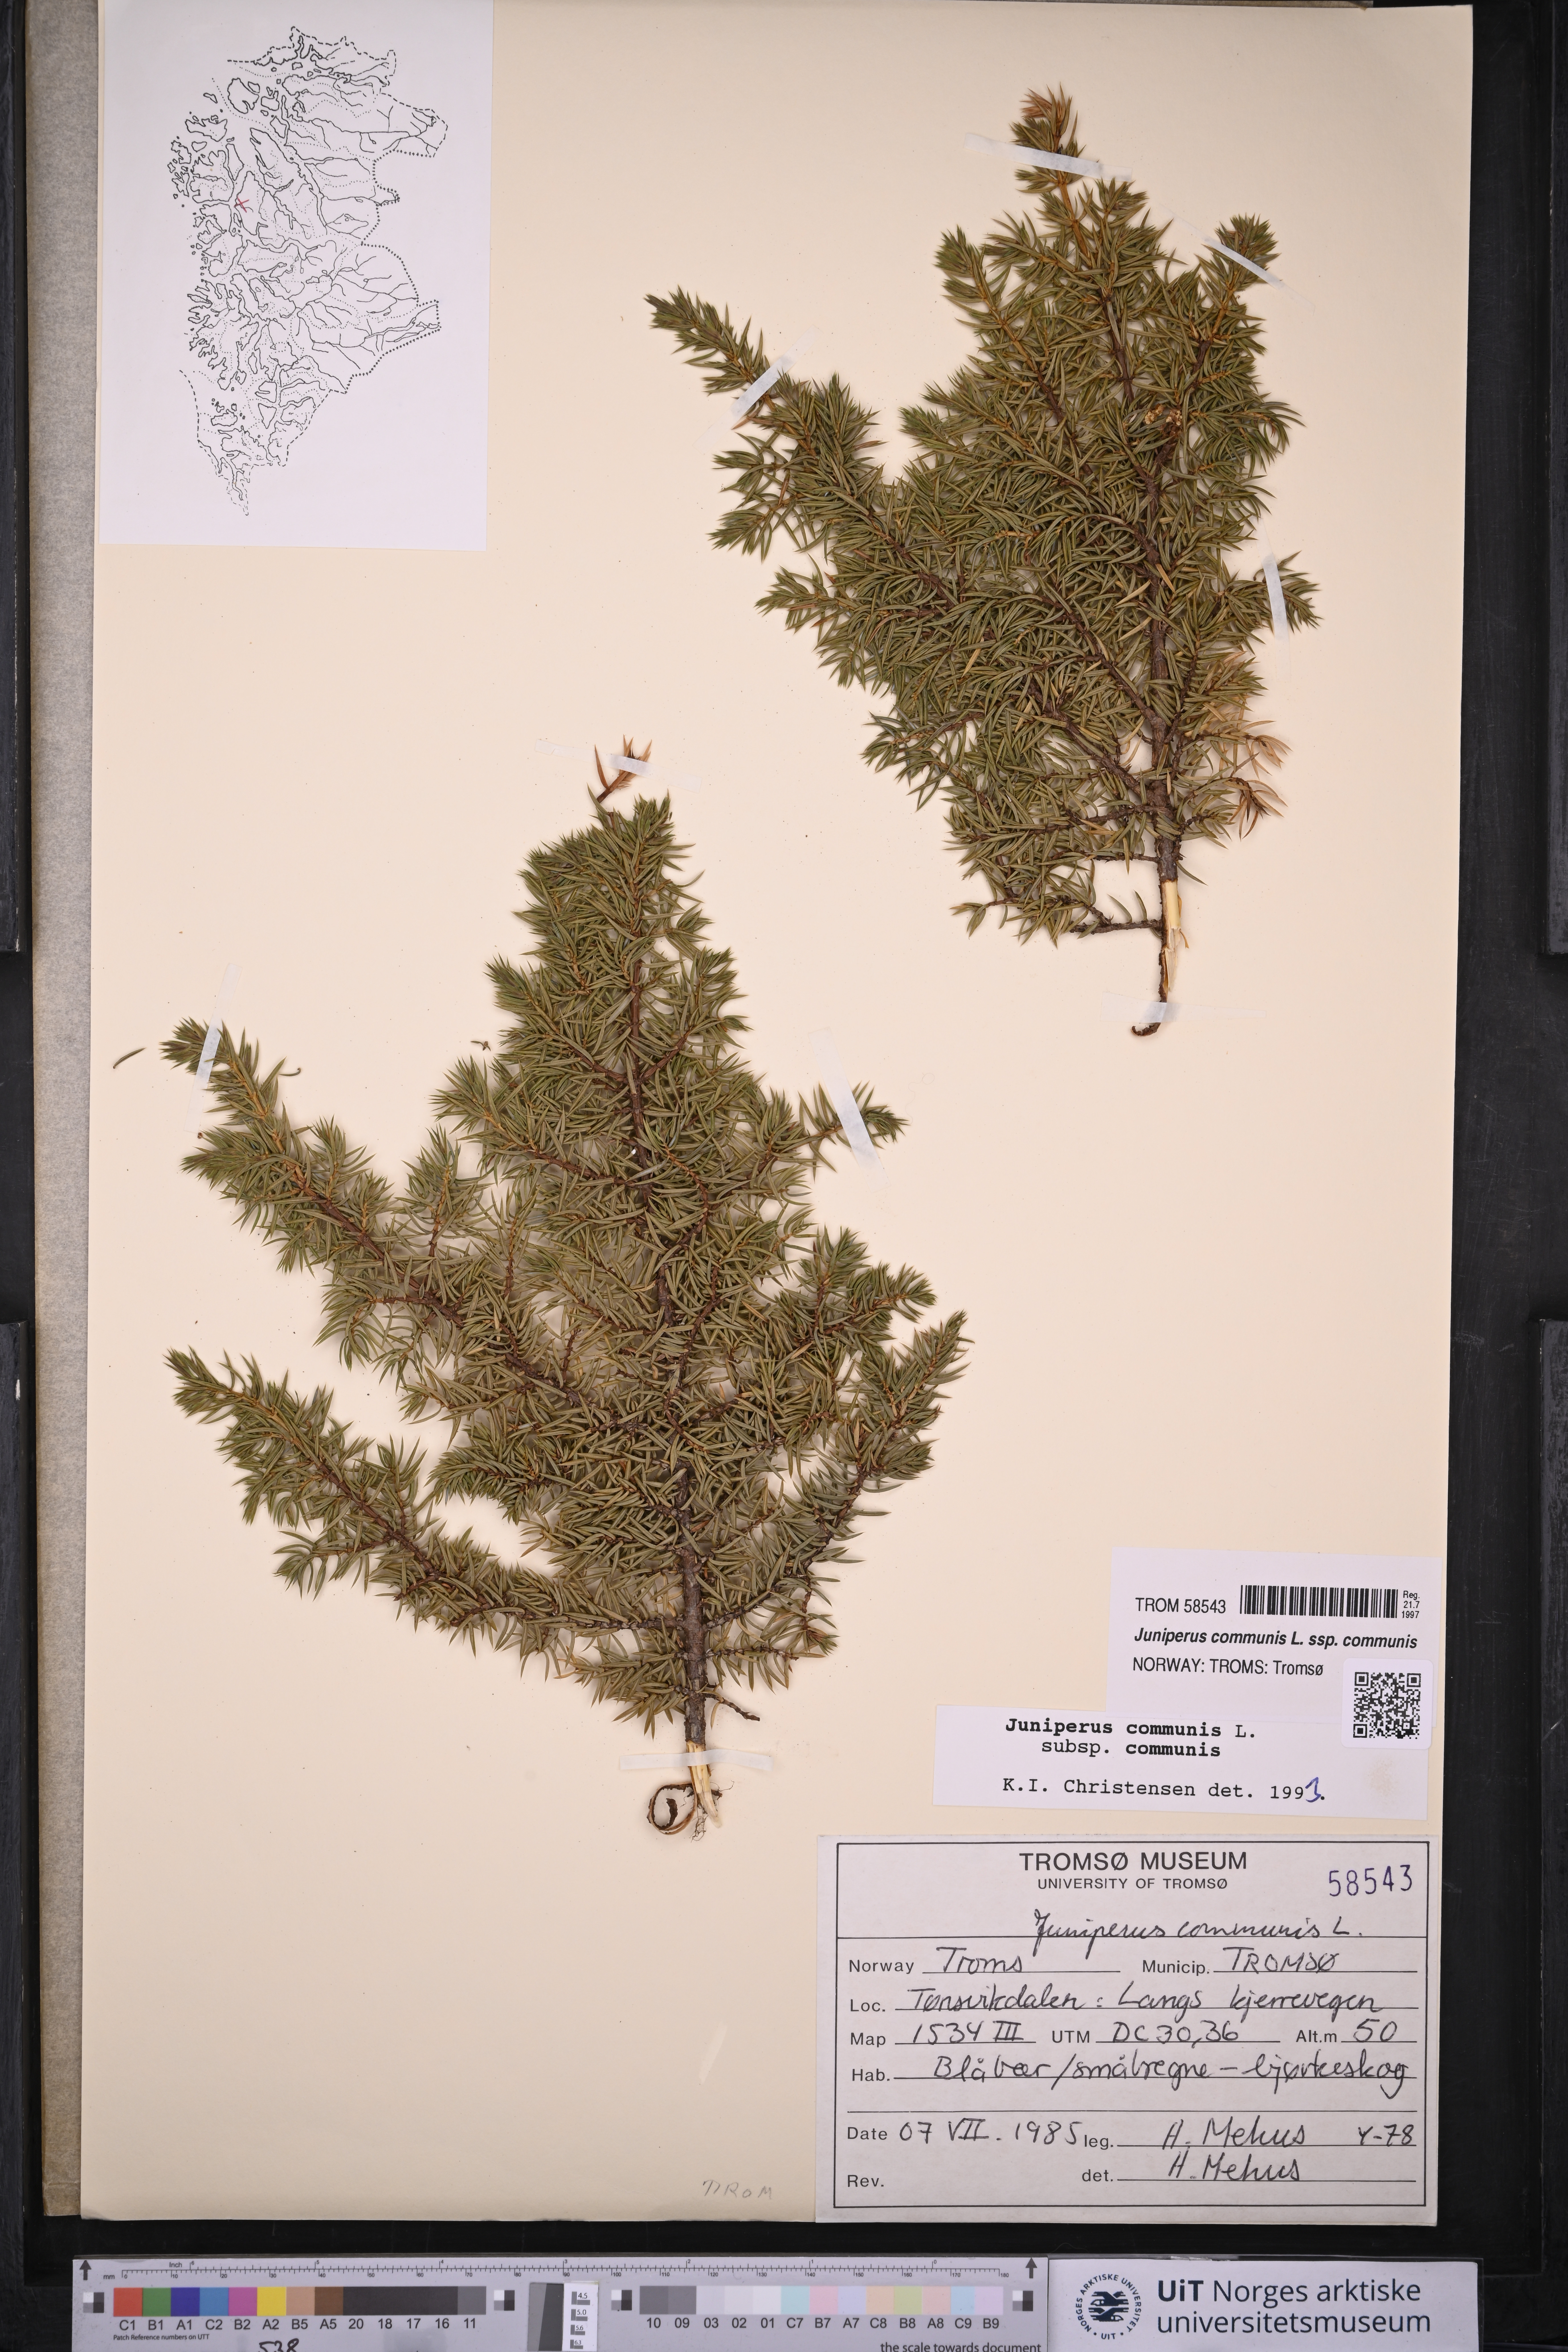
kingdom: Plantae
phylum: Tracheophyta
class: Pinopsida
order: Pinales
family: Cupressaceae
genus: Juniperus
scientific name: Juniperus communis
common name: Common juniper
